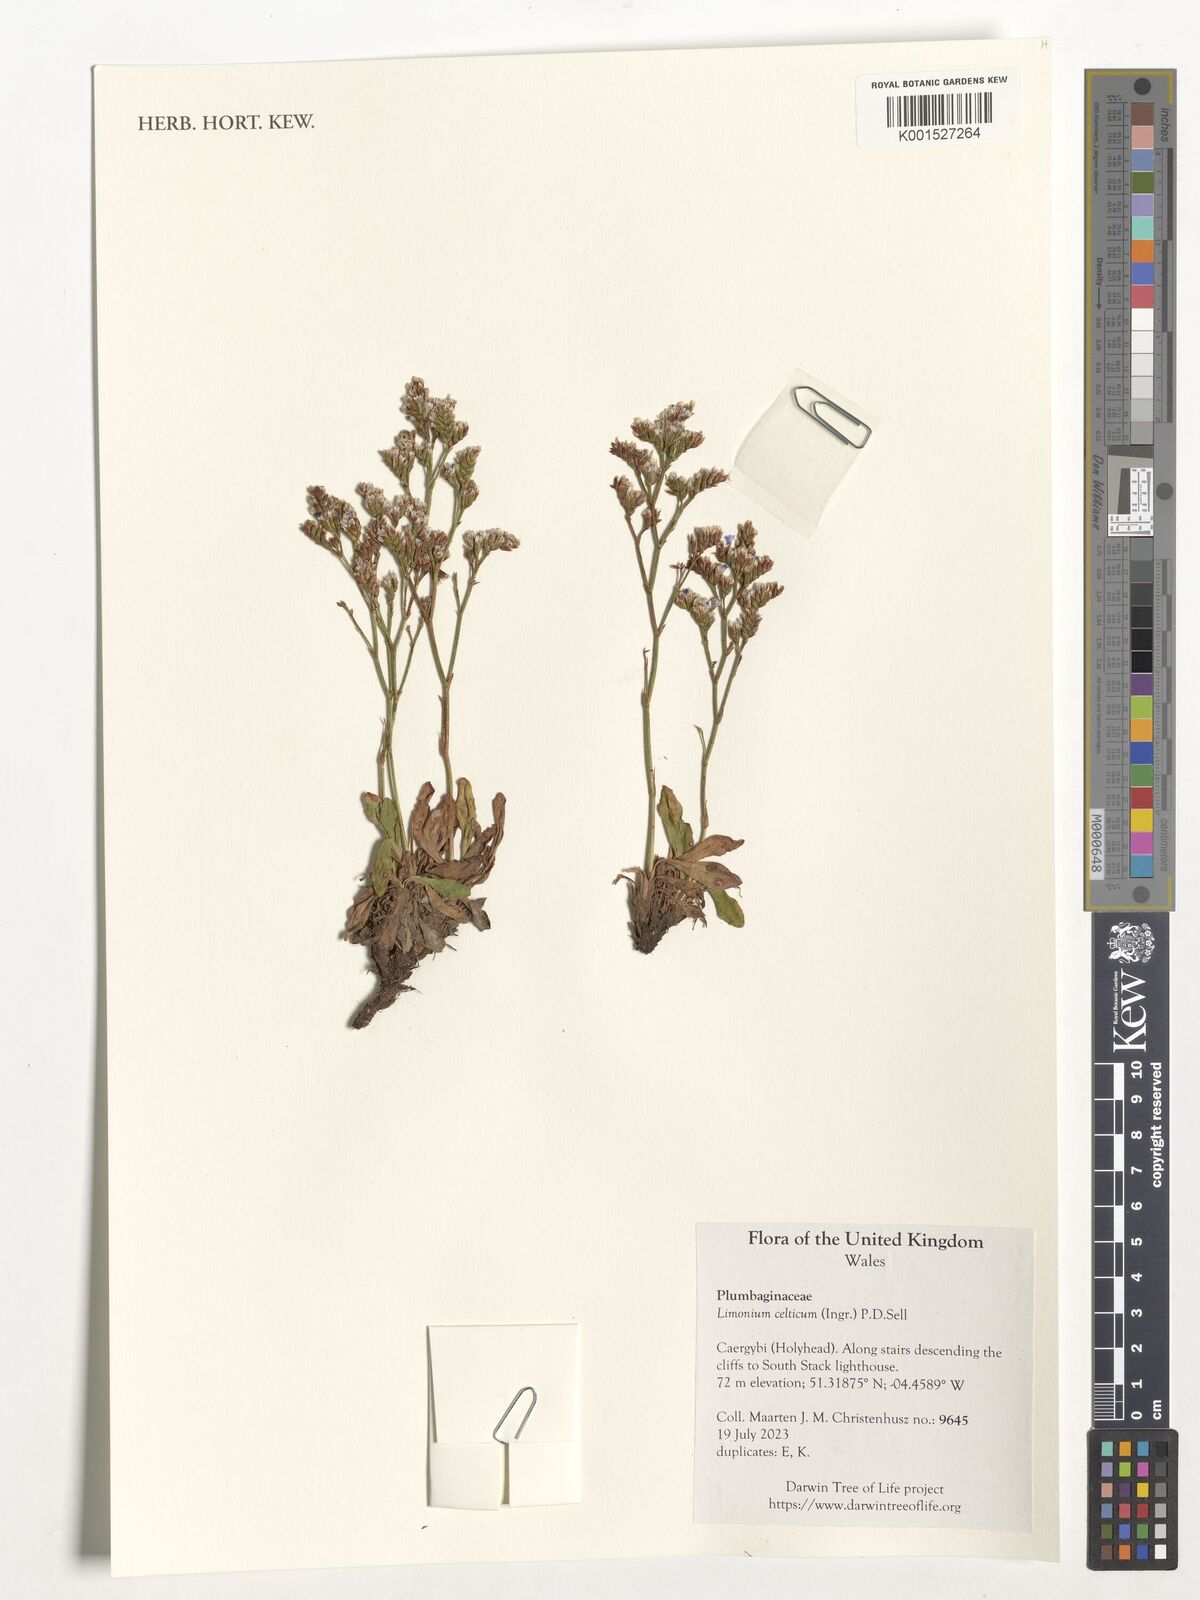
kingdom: Plantae
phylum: Tracheophyta
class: Magnoliopsida
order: Caryophyllales
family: Plumbaginaceae
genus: Limonium
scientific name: Limonium celticum
